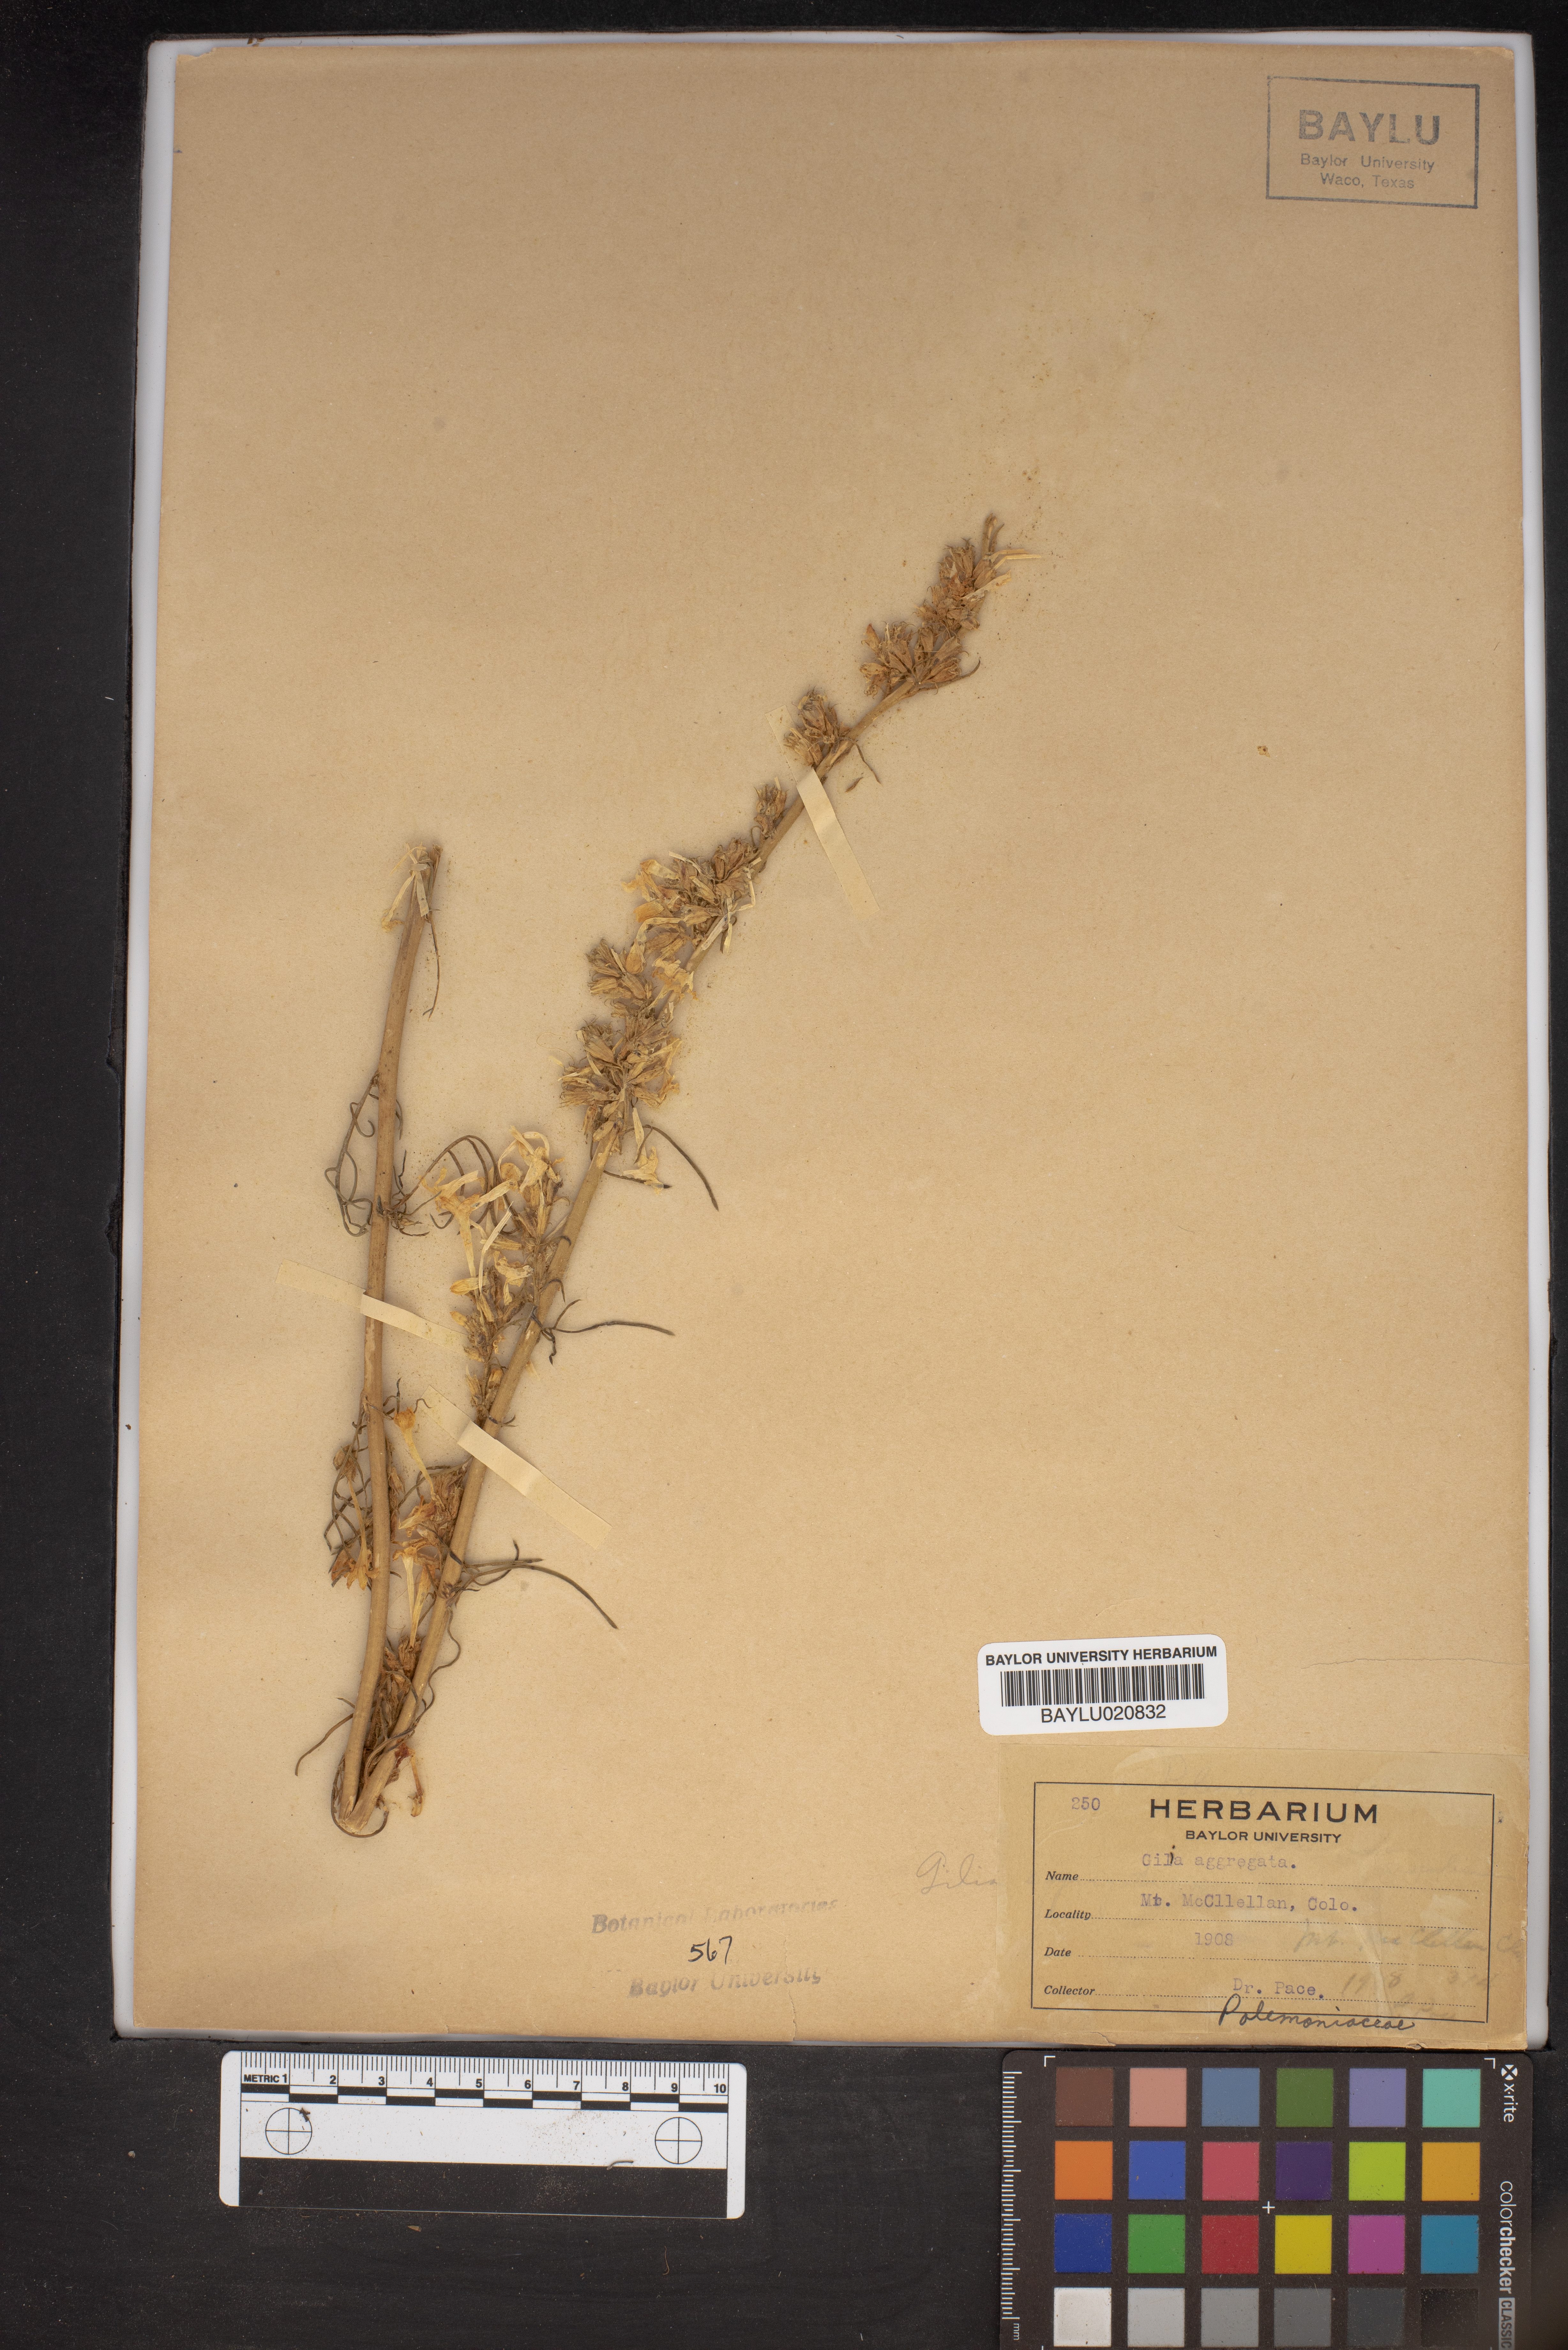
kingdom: Plantae
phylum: Tracheophyta
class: Magnoliopsida
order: Ericales
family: Polemoniaceae
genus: Ipomopsis
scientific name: Ipomopsis aggregata
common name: Scarlet gilia
